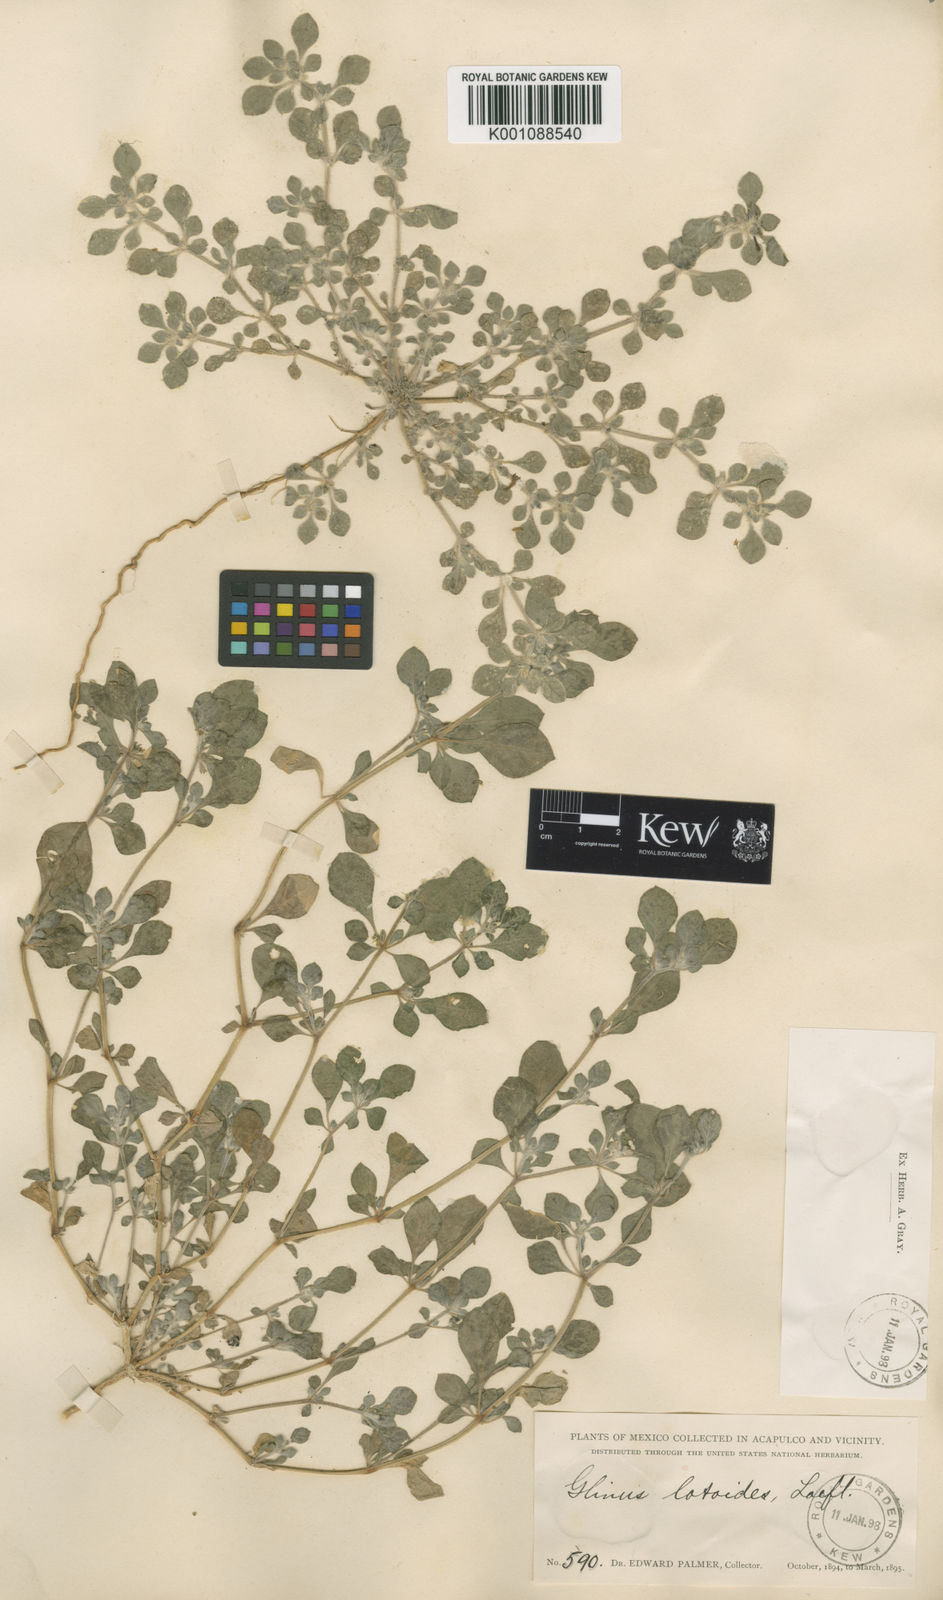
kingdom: Plantae
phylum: Tracheophyta
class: Magnoliopsida
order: Caryophyllales
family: Molluginaceae
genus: Glinus
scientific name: Glinus radiatus
